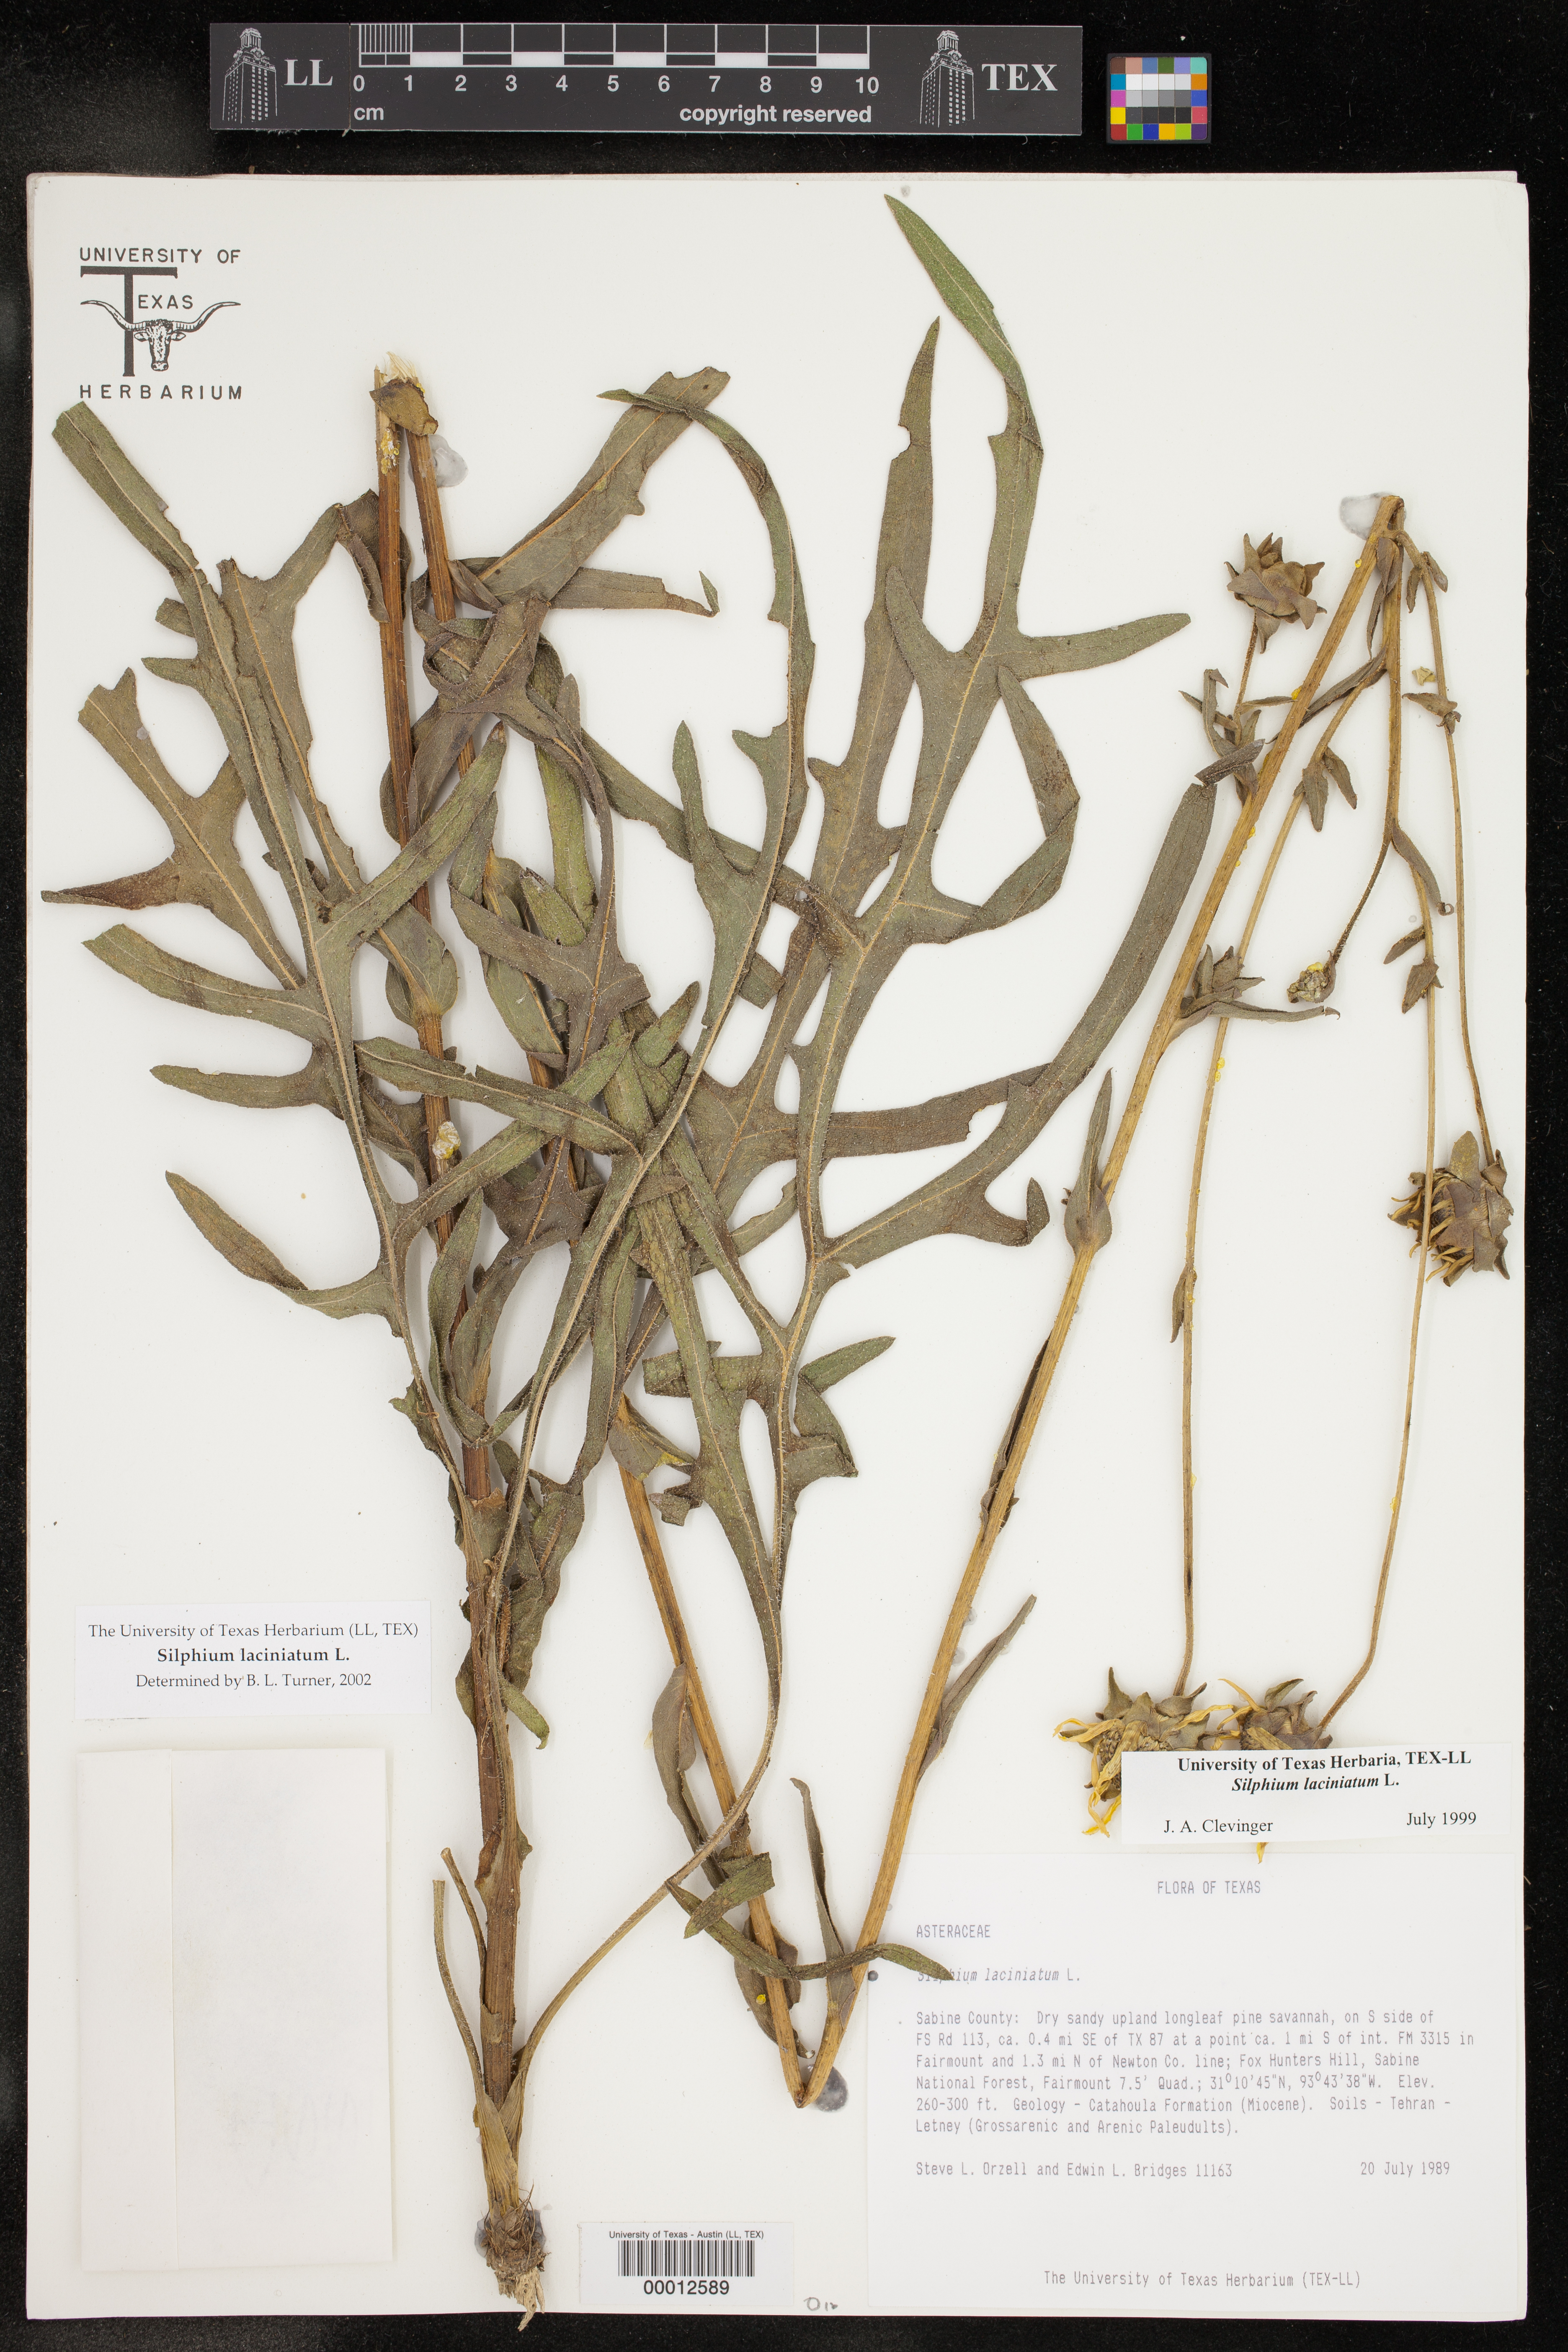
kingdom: Plantae
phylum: Tracheophyta
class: Magnoliopsida
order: Asterales
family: Asteraceae
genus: Silphium
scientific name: Silphium laciniatum
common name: Polarplant
